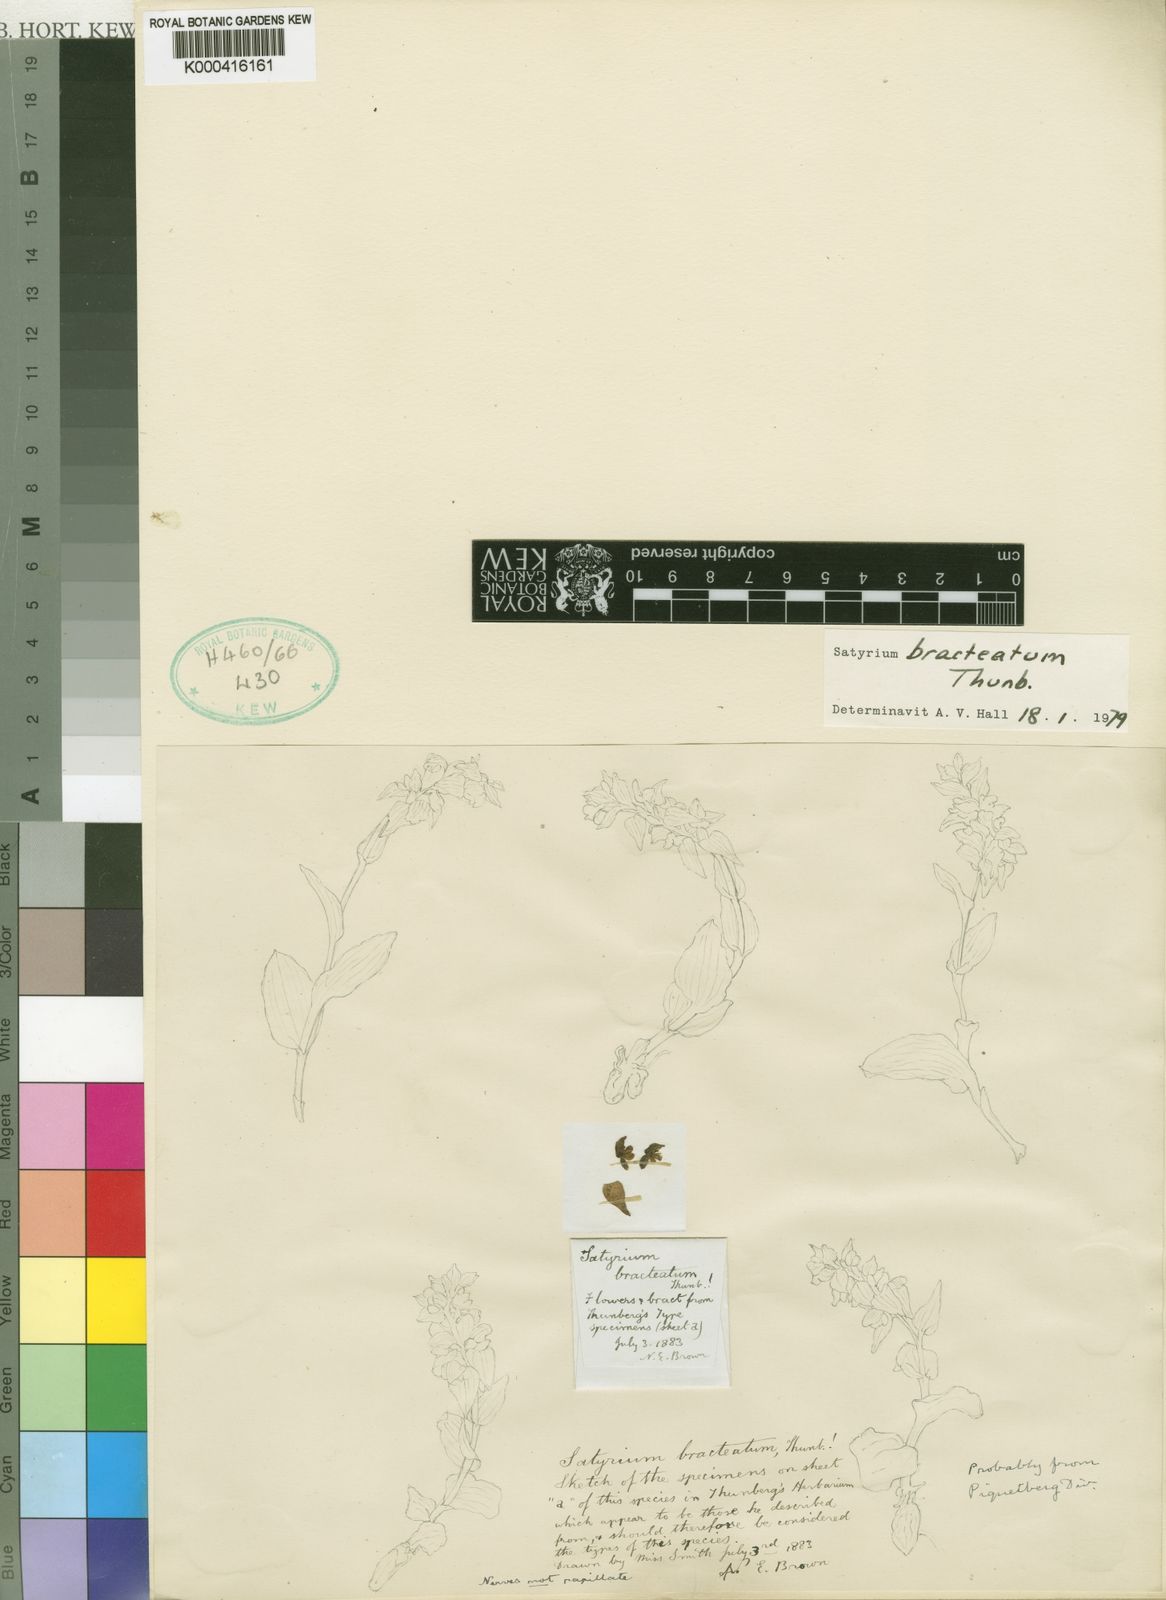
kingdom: Plantae
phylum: Tracheophyta
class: Liliopsida
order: Asparagales
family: Orchidaceae
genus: Satyrium
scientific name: Satyrium bracteatum
